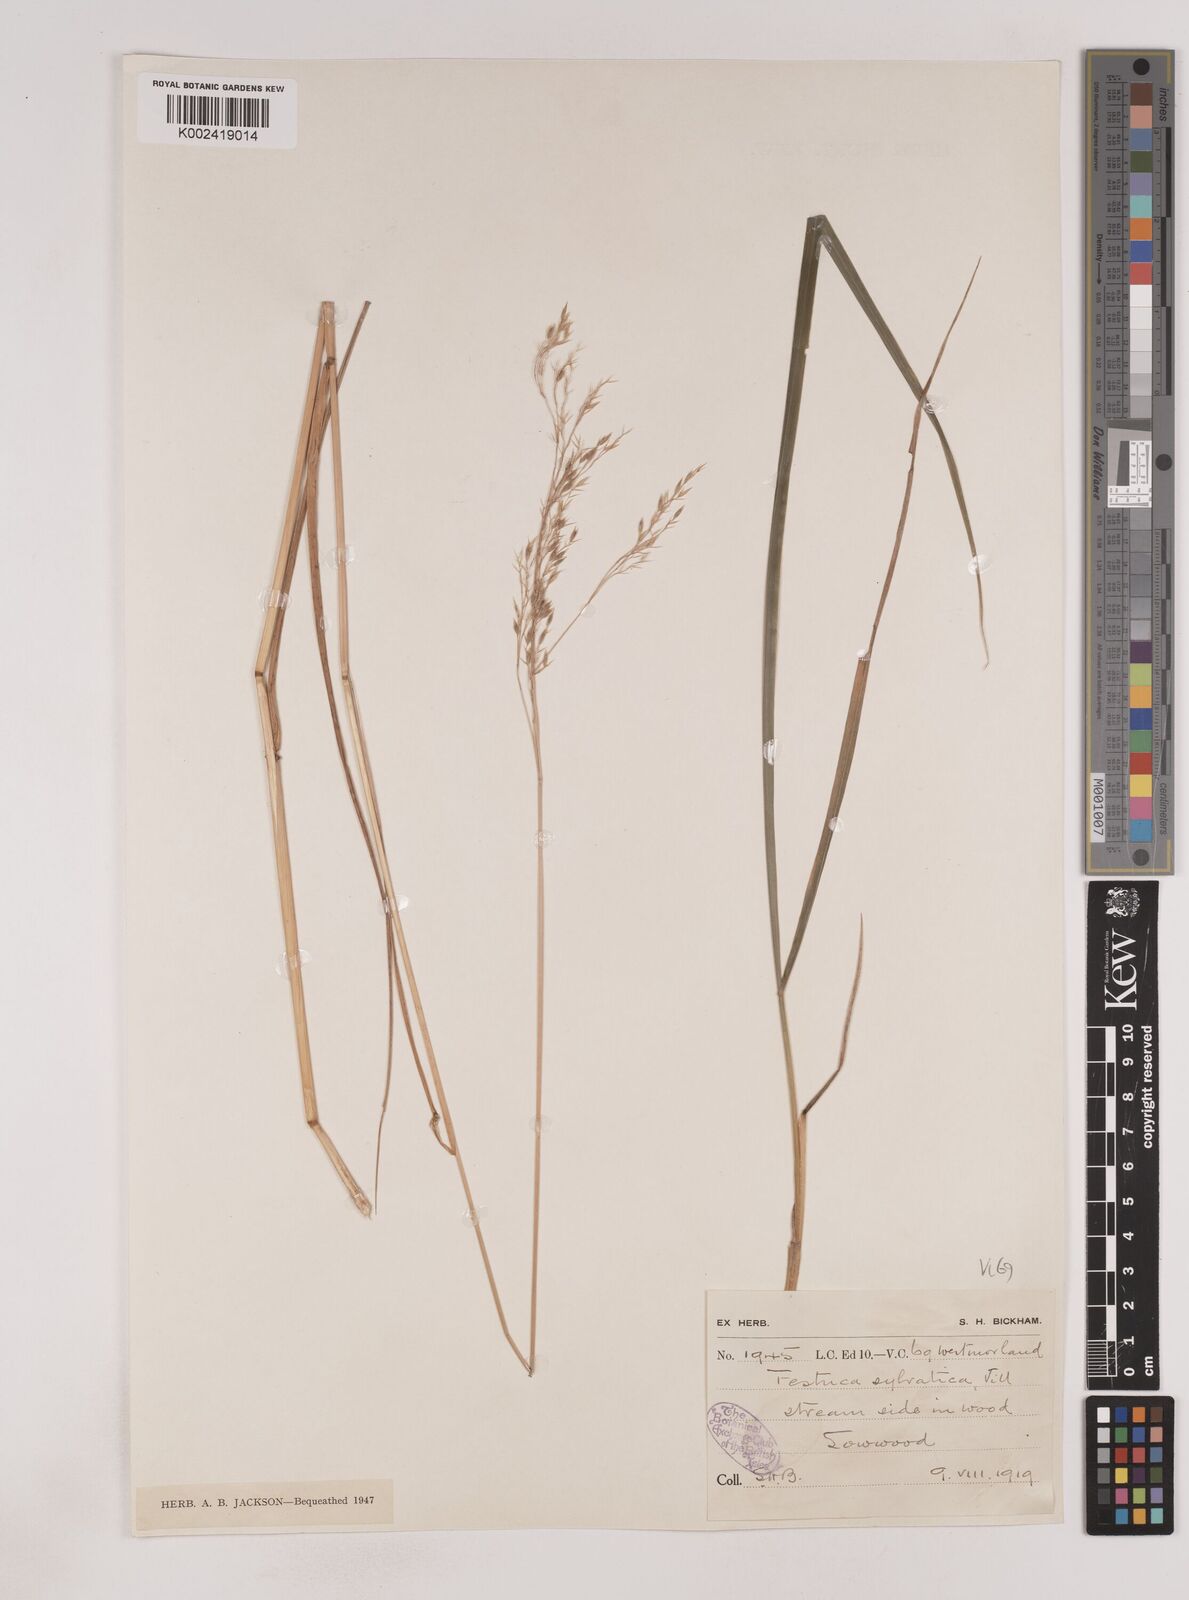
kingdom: Plantae
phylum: Tracheophyta
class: Liliopsida
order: Poales
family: Poaceae
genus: Festuca
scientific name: Festuca drymeja
